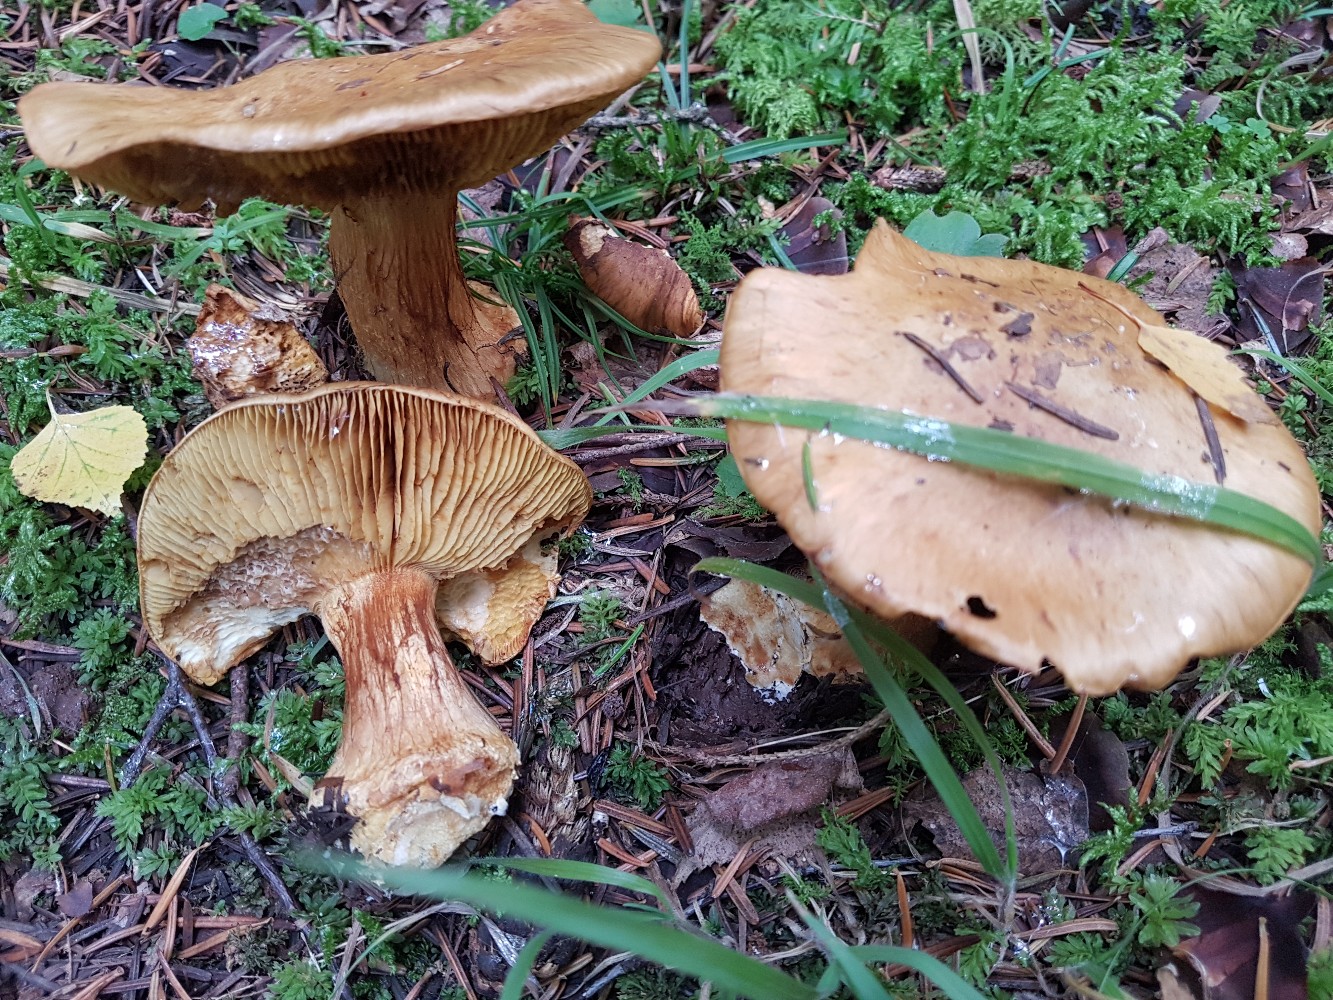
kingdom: Fungi
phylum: Basidiomycota
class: Agaricomycetes
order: Agaricales
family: Cortinariaceae
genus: Calonarius
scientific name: Calonarius elegantior
